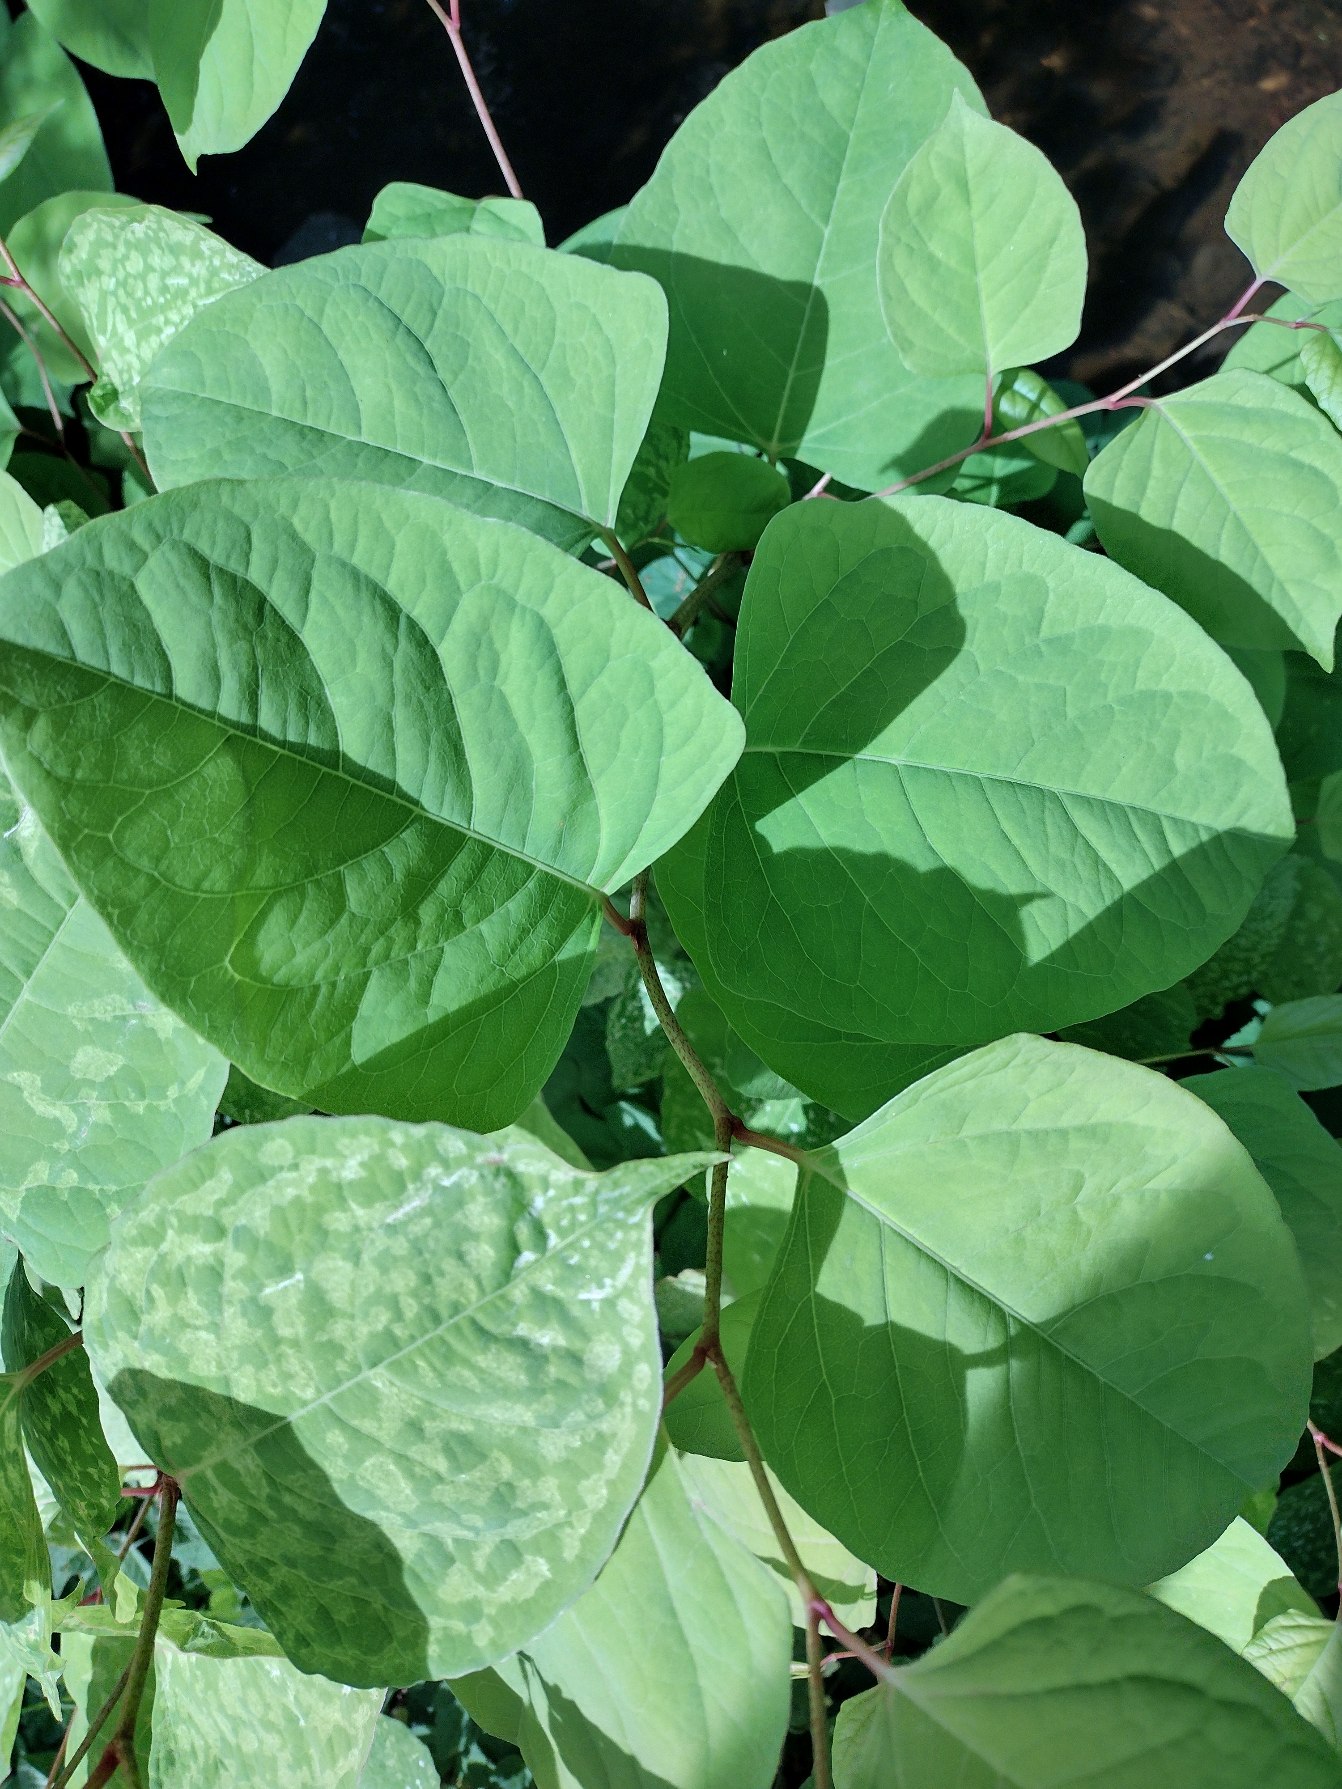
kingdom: Plantae
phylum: Tracheophyta
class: Magnoliopsida
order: Caryophyllales
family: Polygonaceae
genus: Reynoutria
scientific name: Reynoutria japonica
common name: Japan-pileurt
